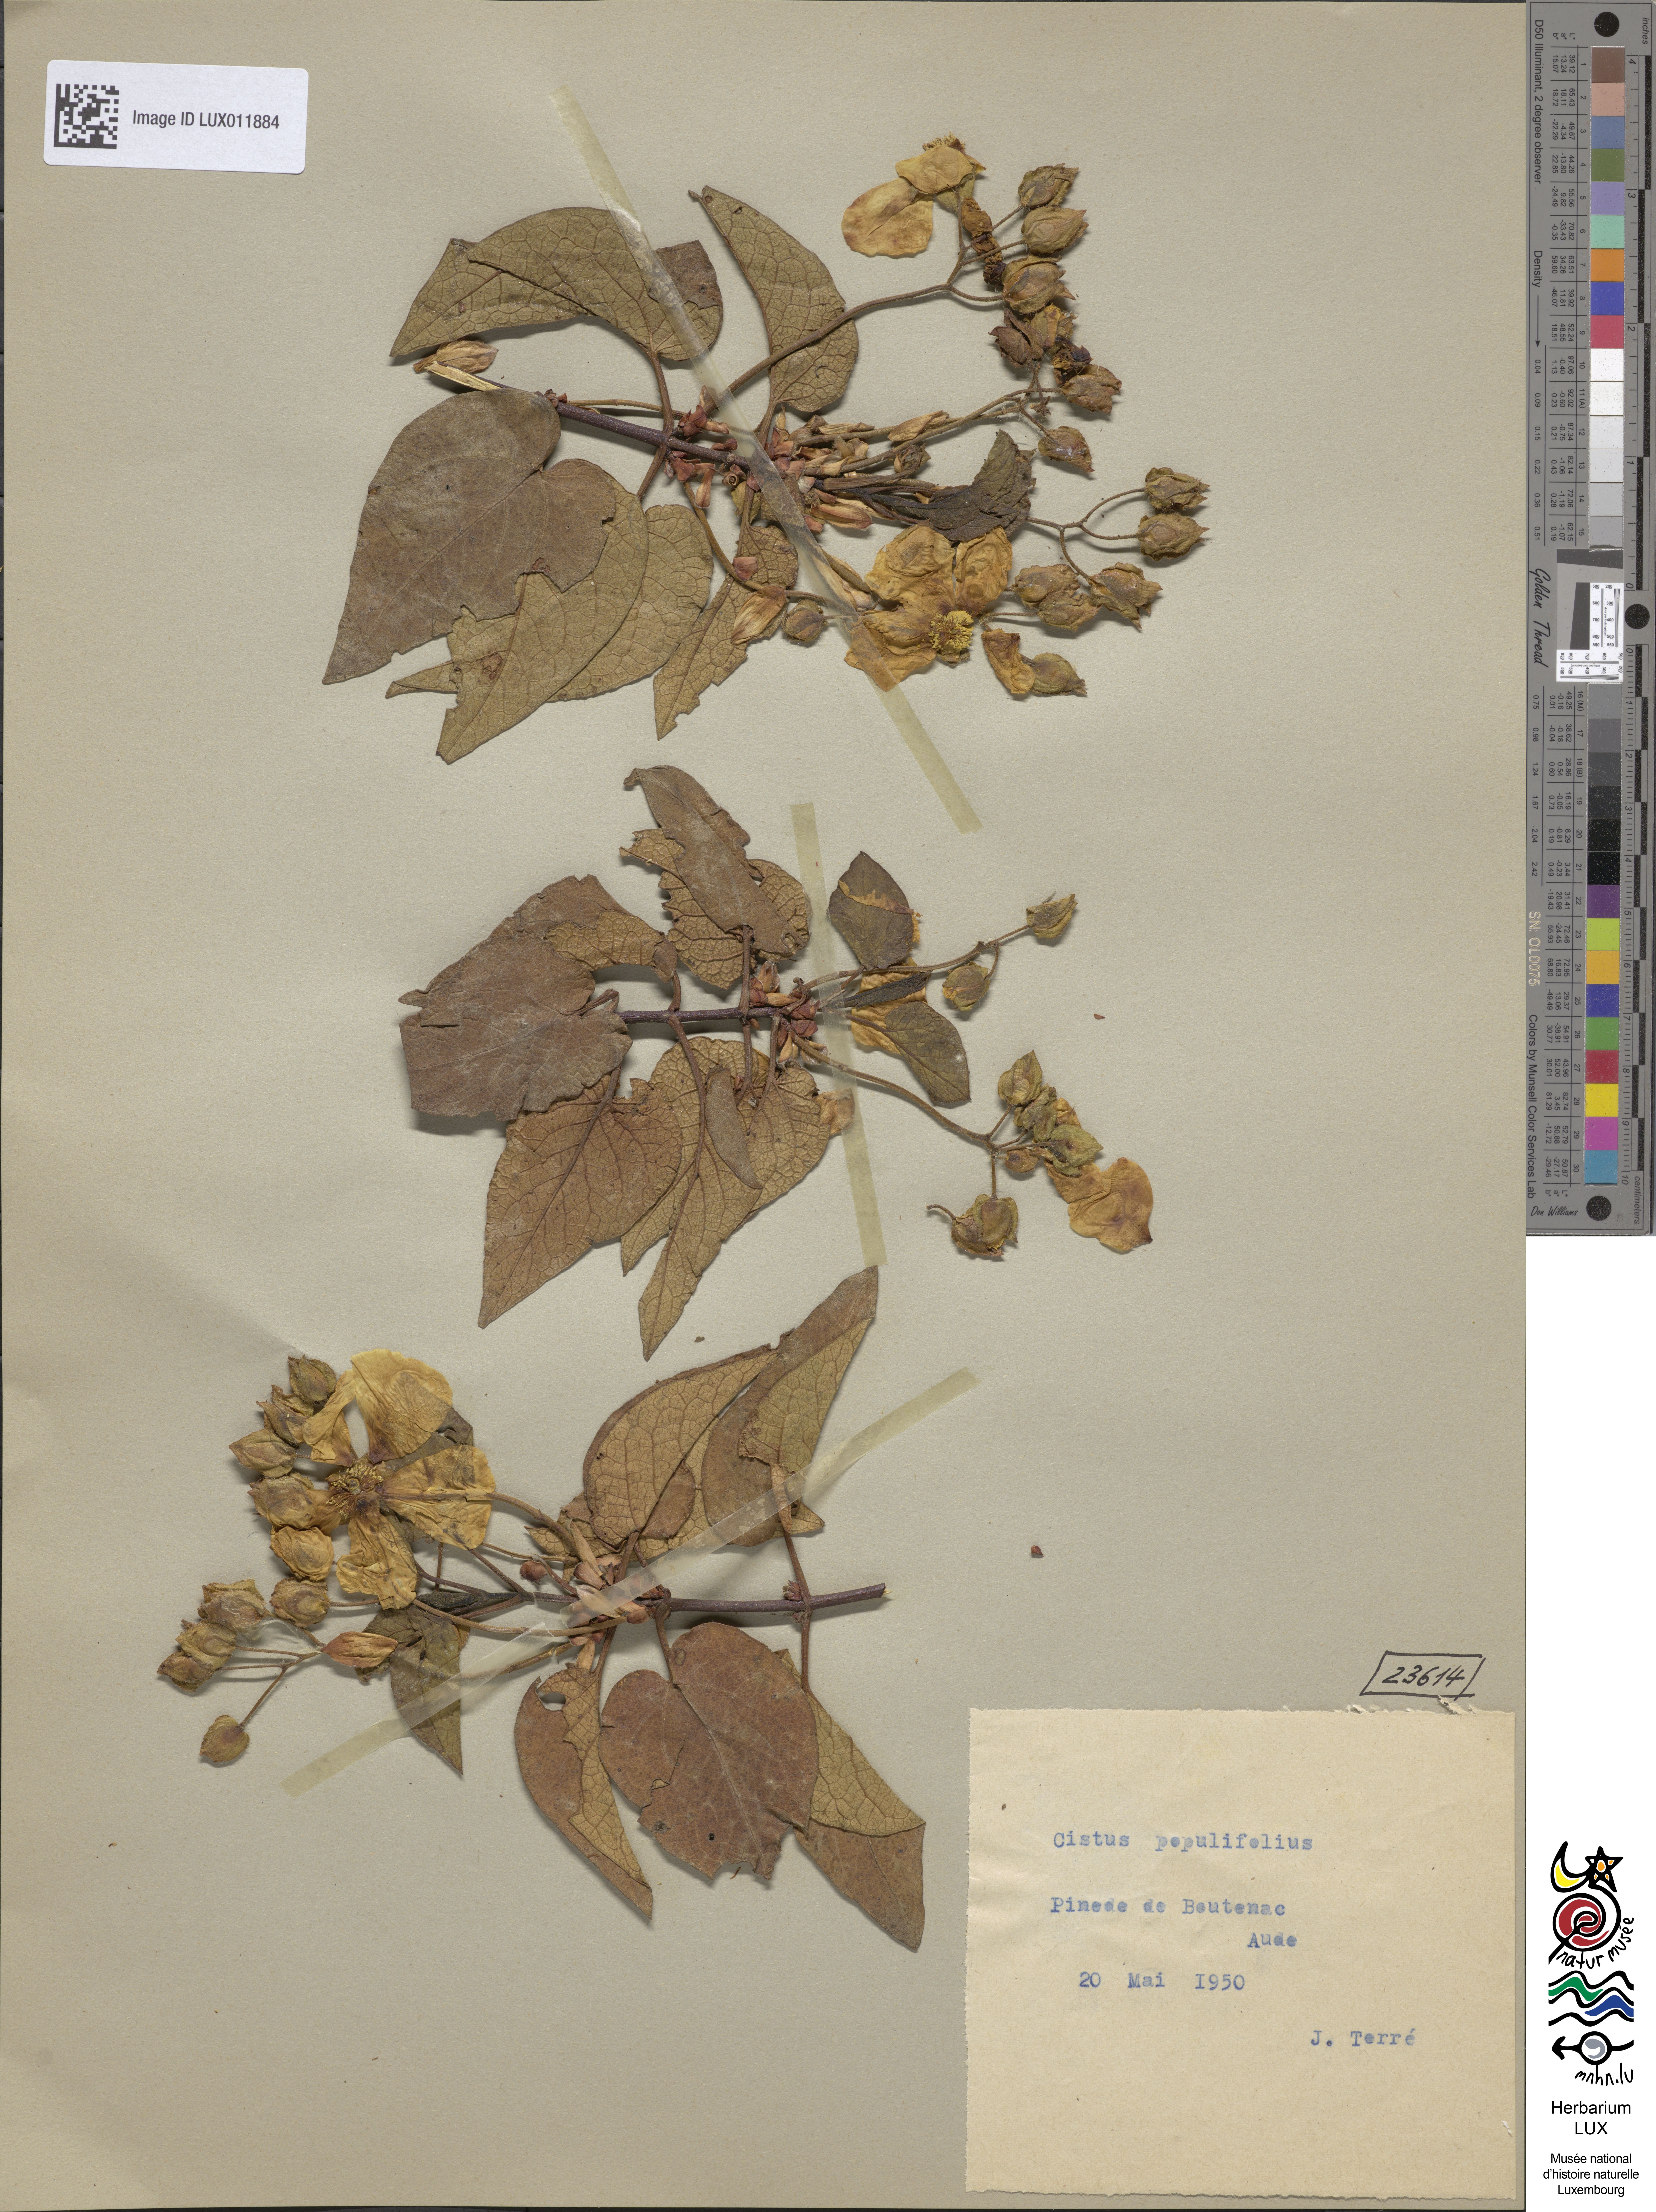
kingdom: Plantae
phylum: Tracheophyta
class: Magnoliopsida
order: Malvales
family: Cistaceae
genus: Cistus
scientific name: Cistus populifolius
